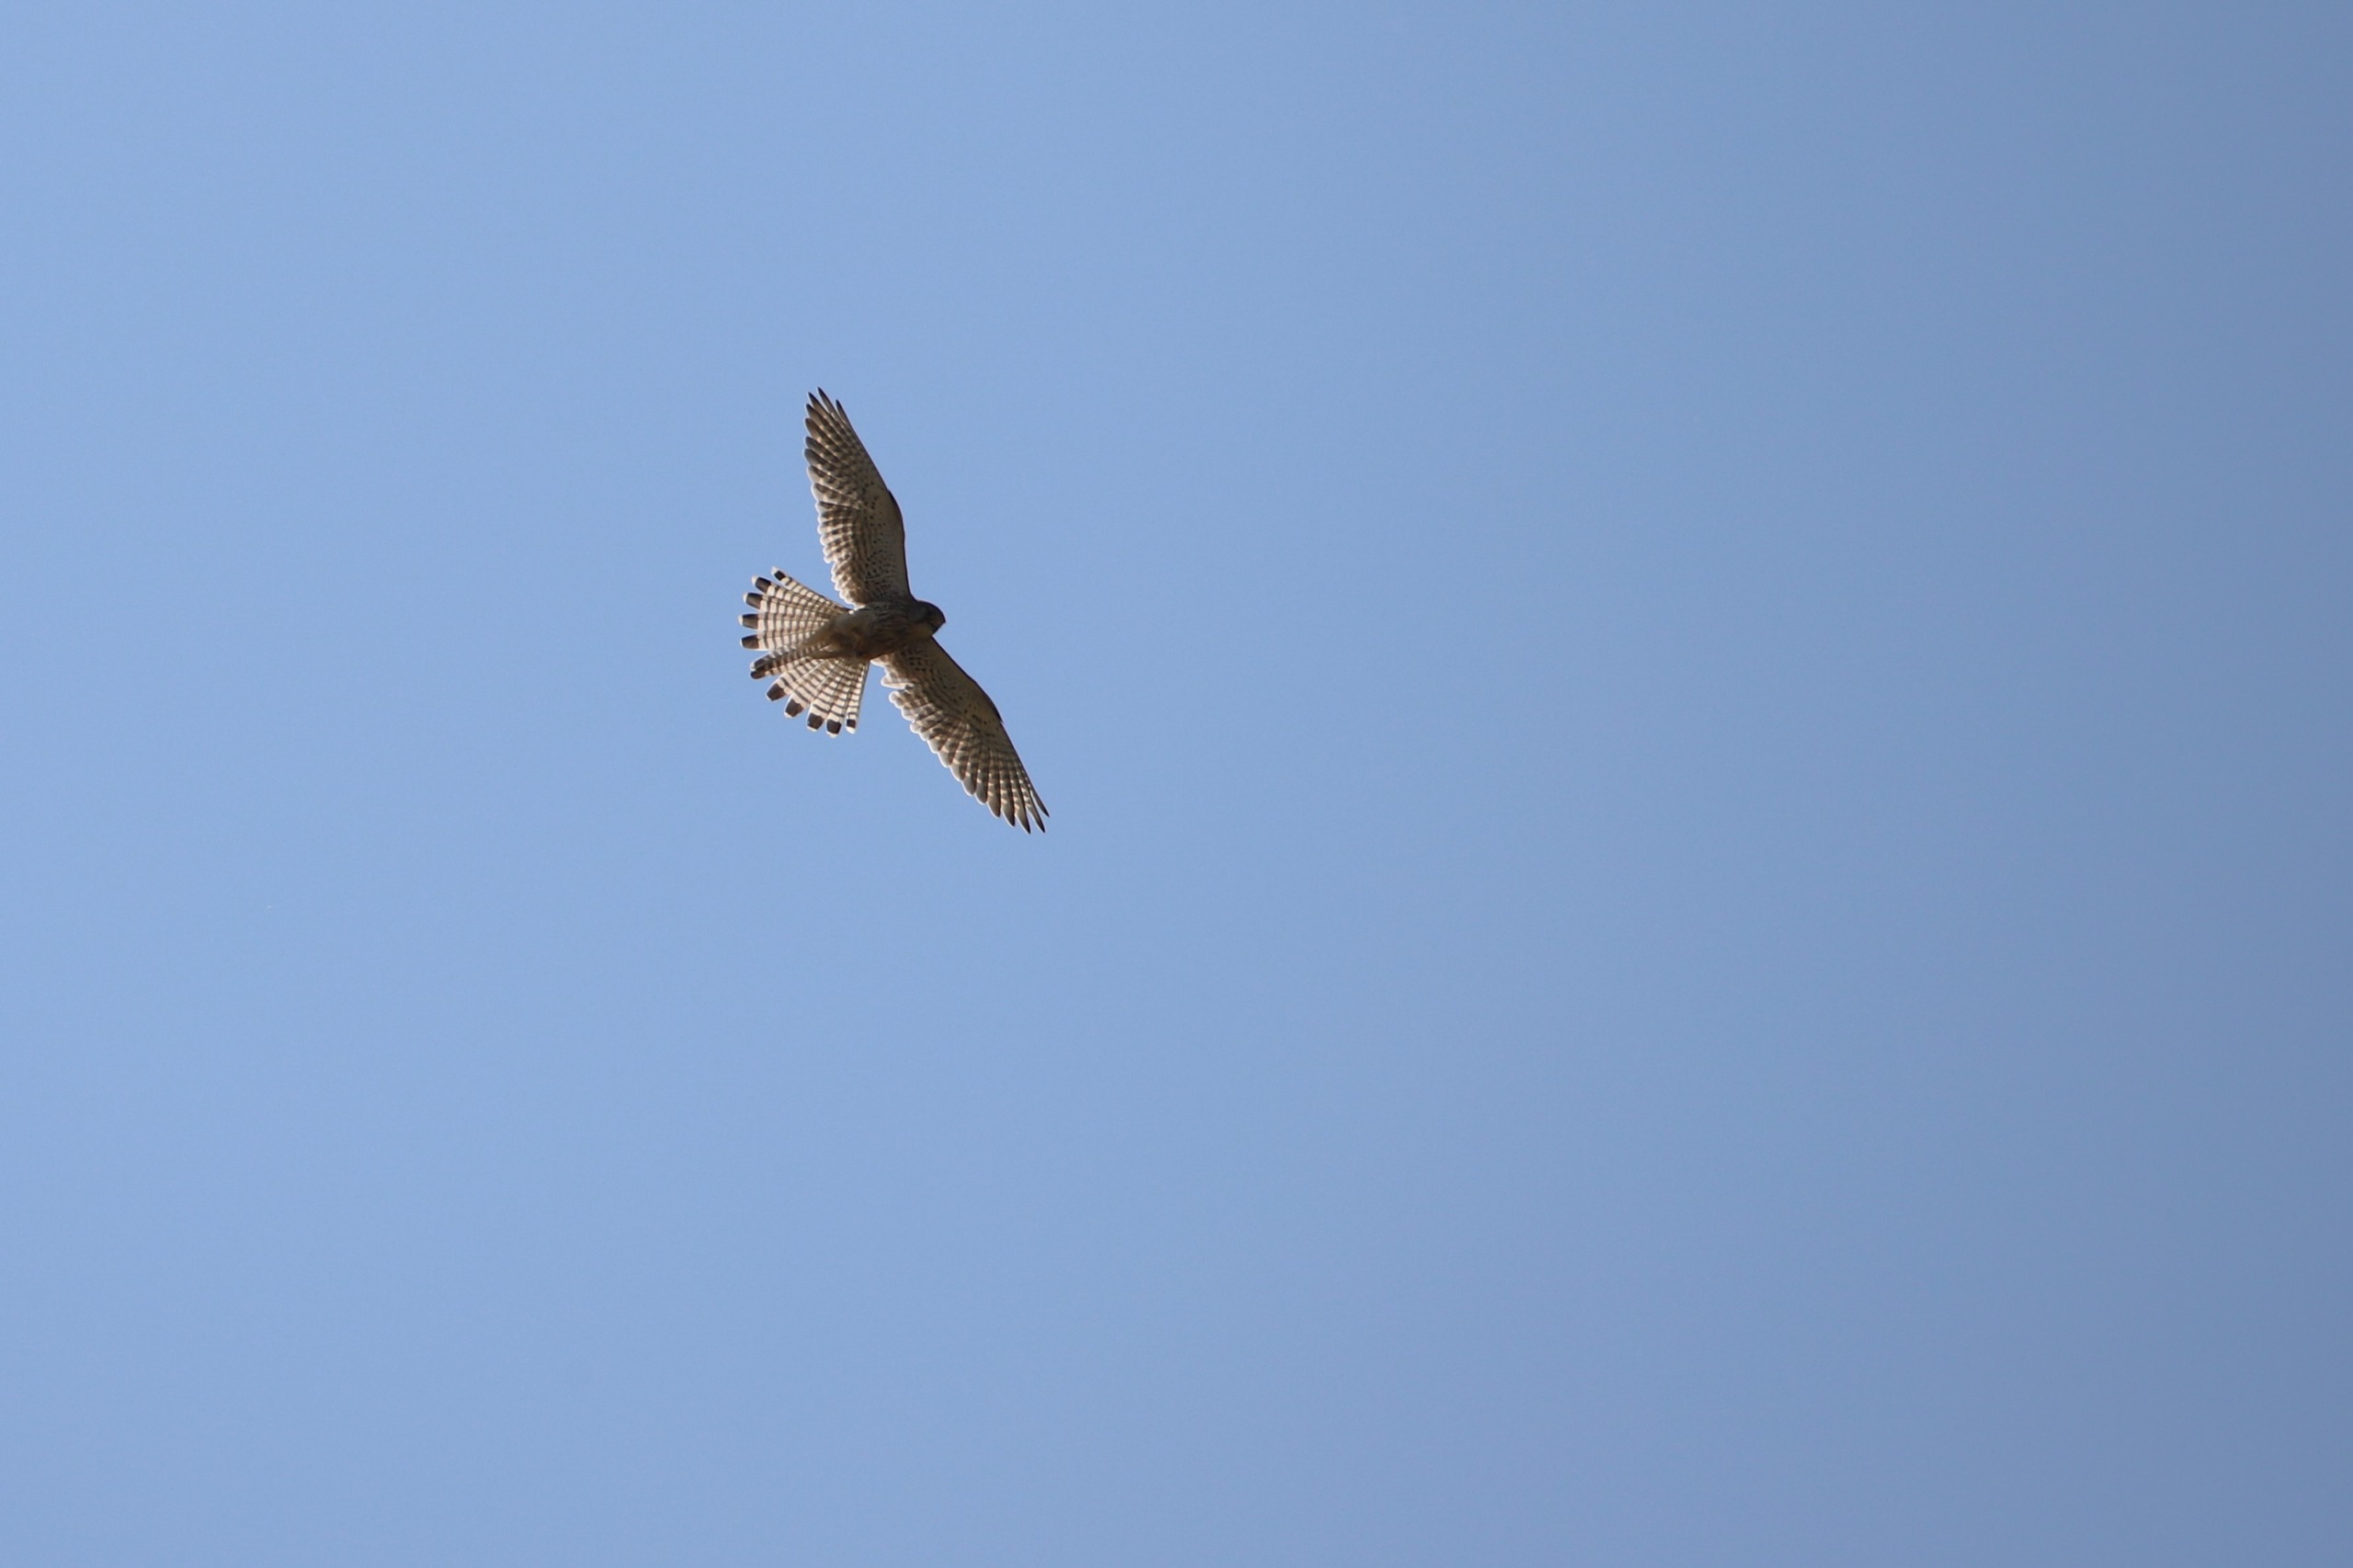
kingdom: Animalia
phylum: Chordata
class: Aves
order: Falconiformes
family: Falconidae
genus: Falco
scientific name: Falco tinnunculus
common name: Tårnfalk
